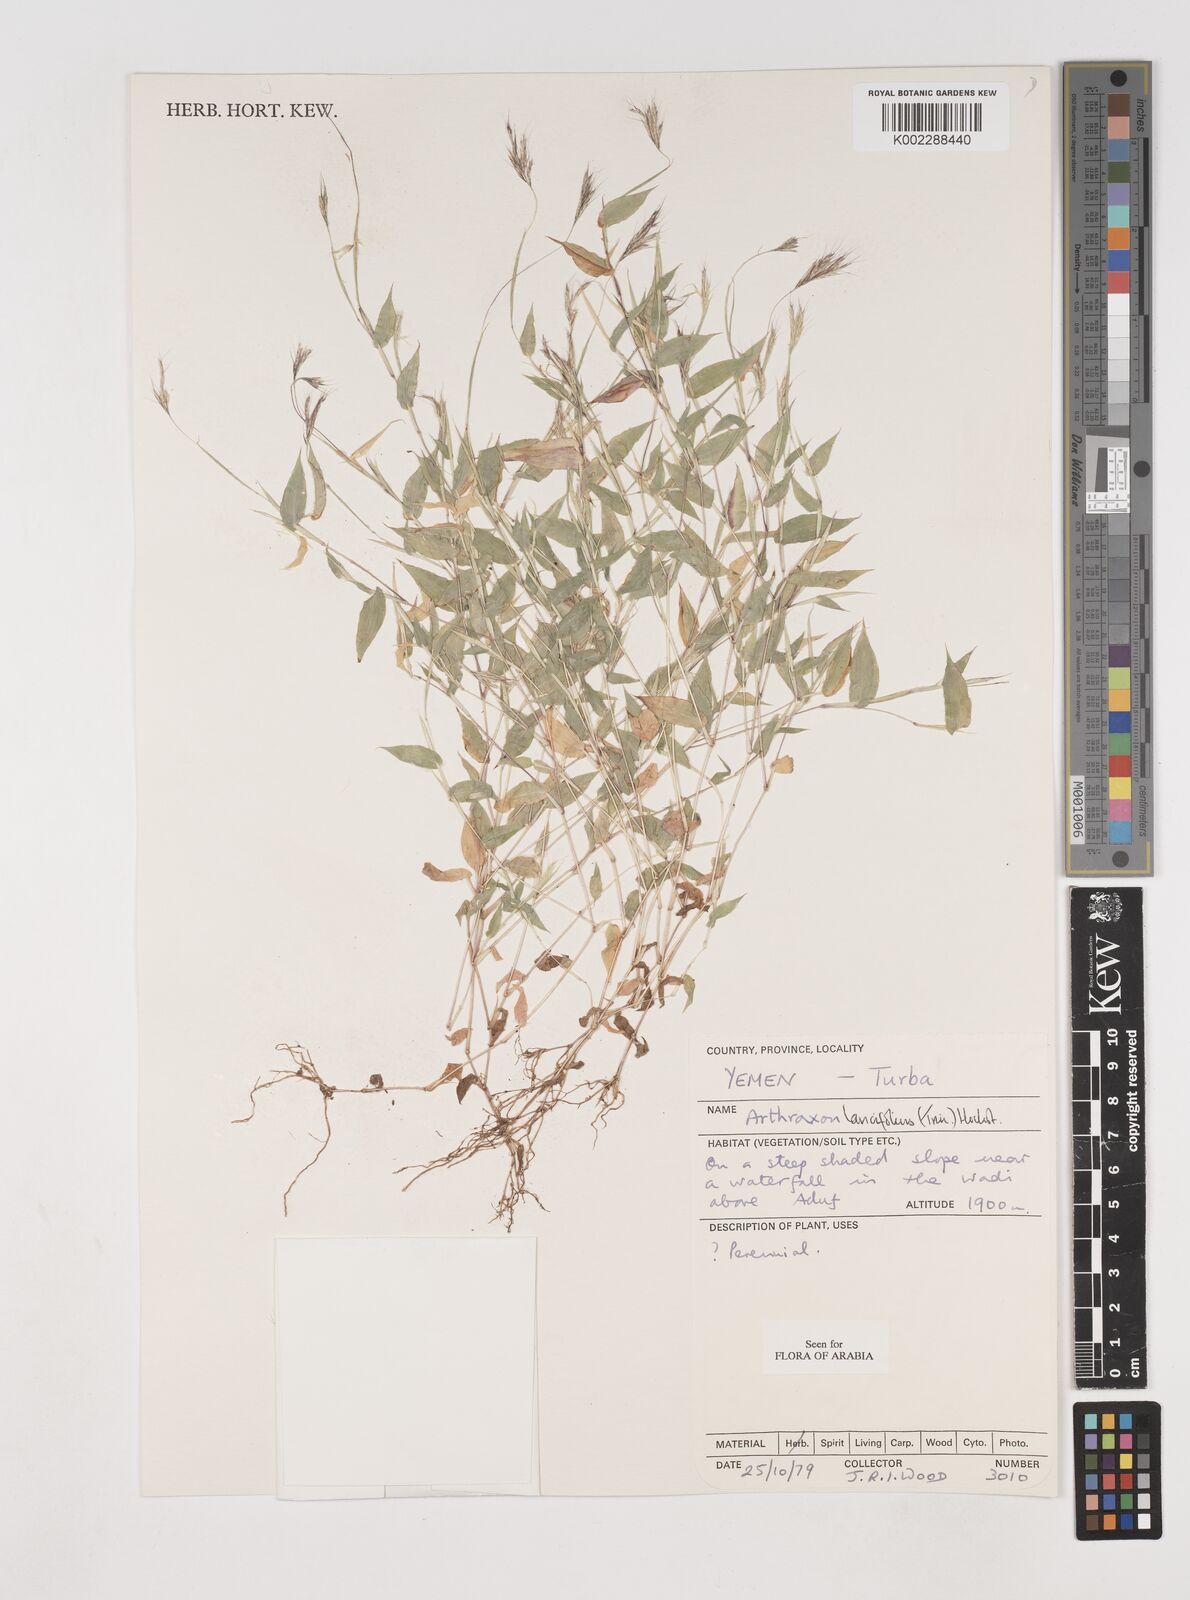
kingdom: Plantae
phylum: Tracheophyta
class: Liliopsida
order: Poales
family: Poaceae
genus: Arthraxon
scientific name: Arthraxon lancifolius
